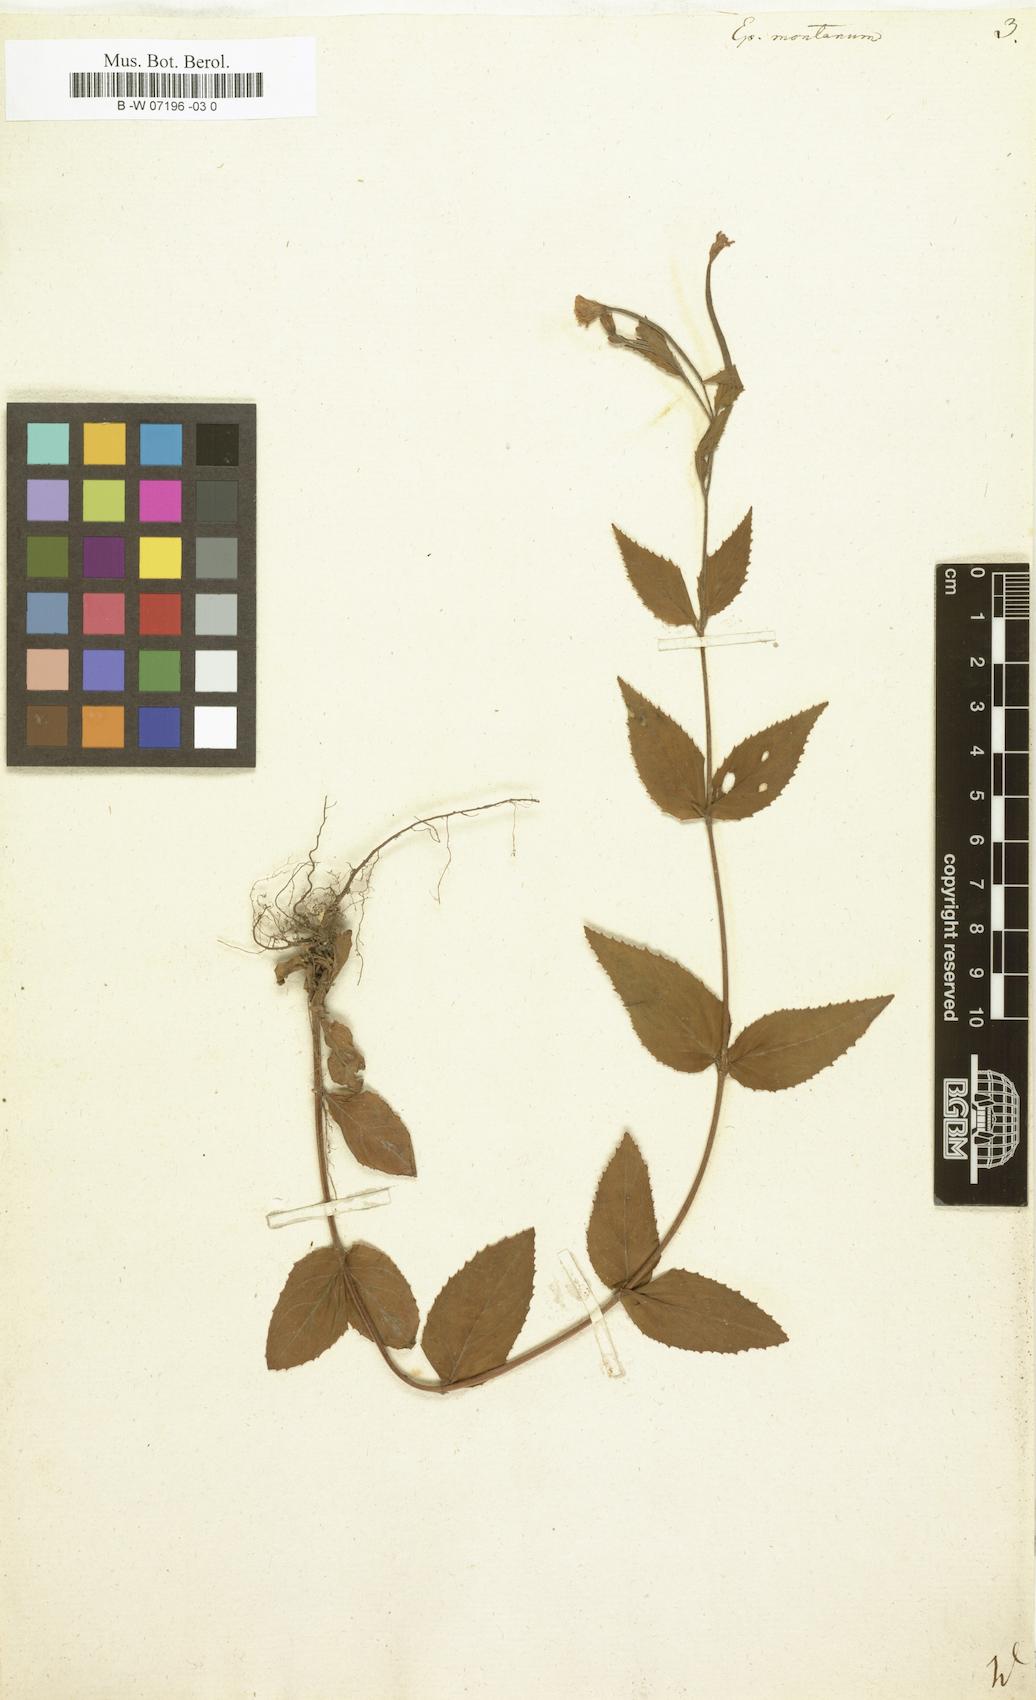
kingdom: Plantae
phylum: Tracheophyta
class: Magnoliopsida
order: Myrtales
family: Onagraceae
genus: Epilobium
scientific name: Epilobium montanum
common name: Broad-leaved willowherb
